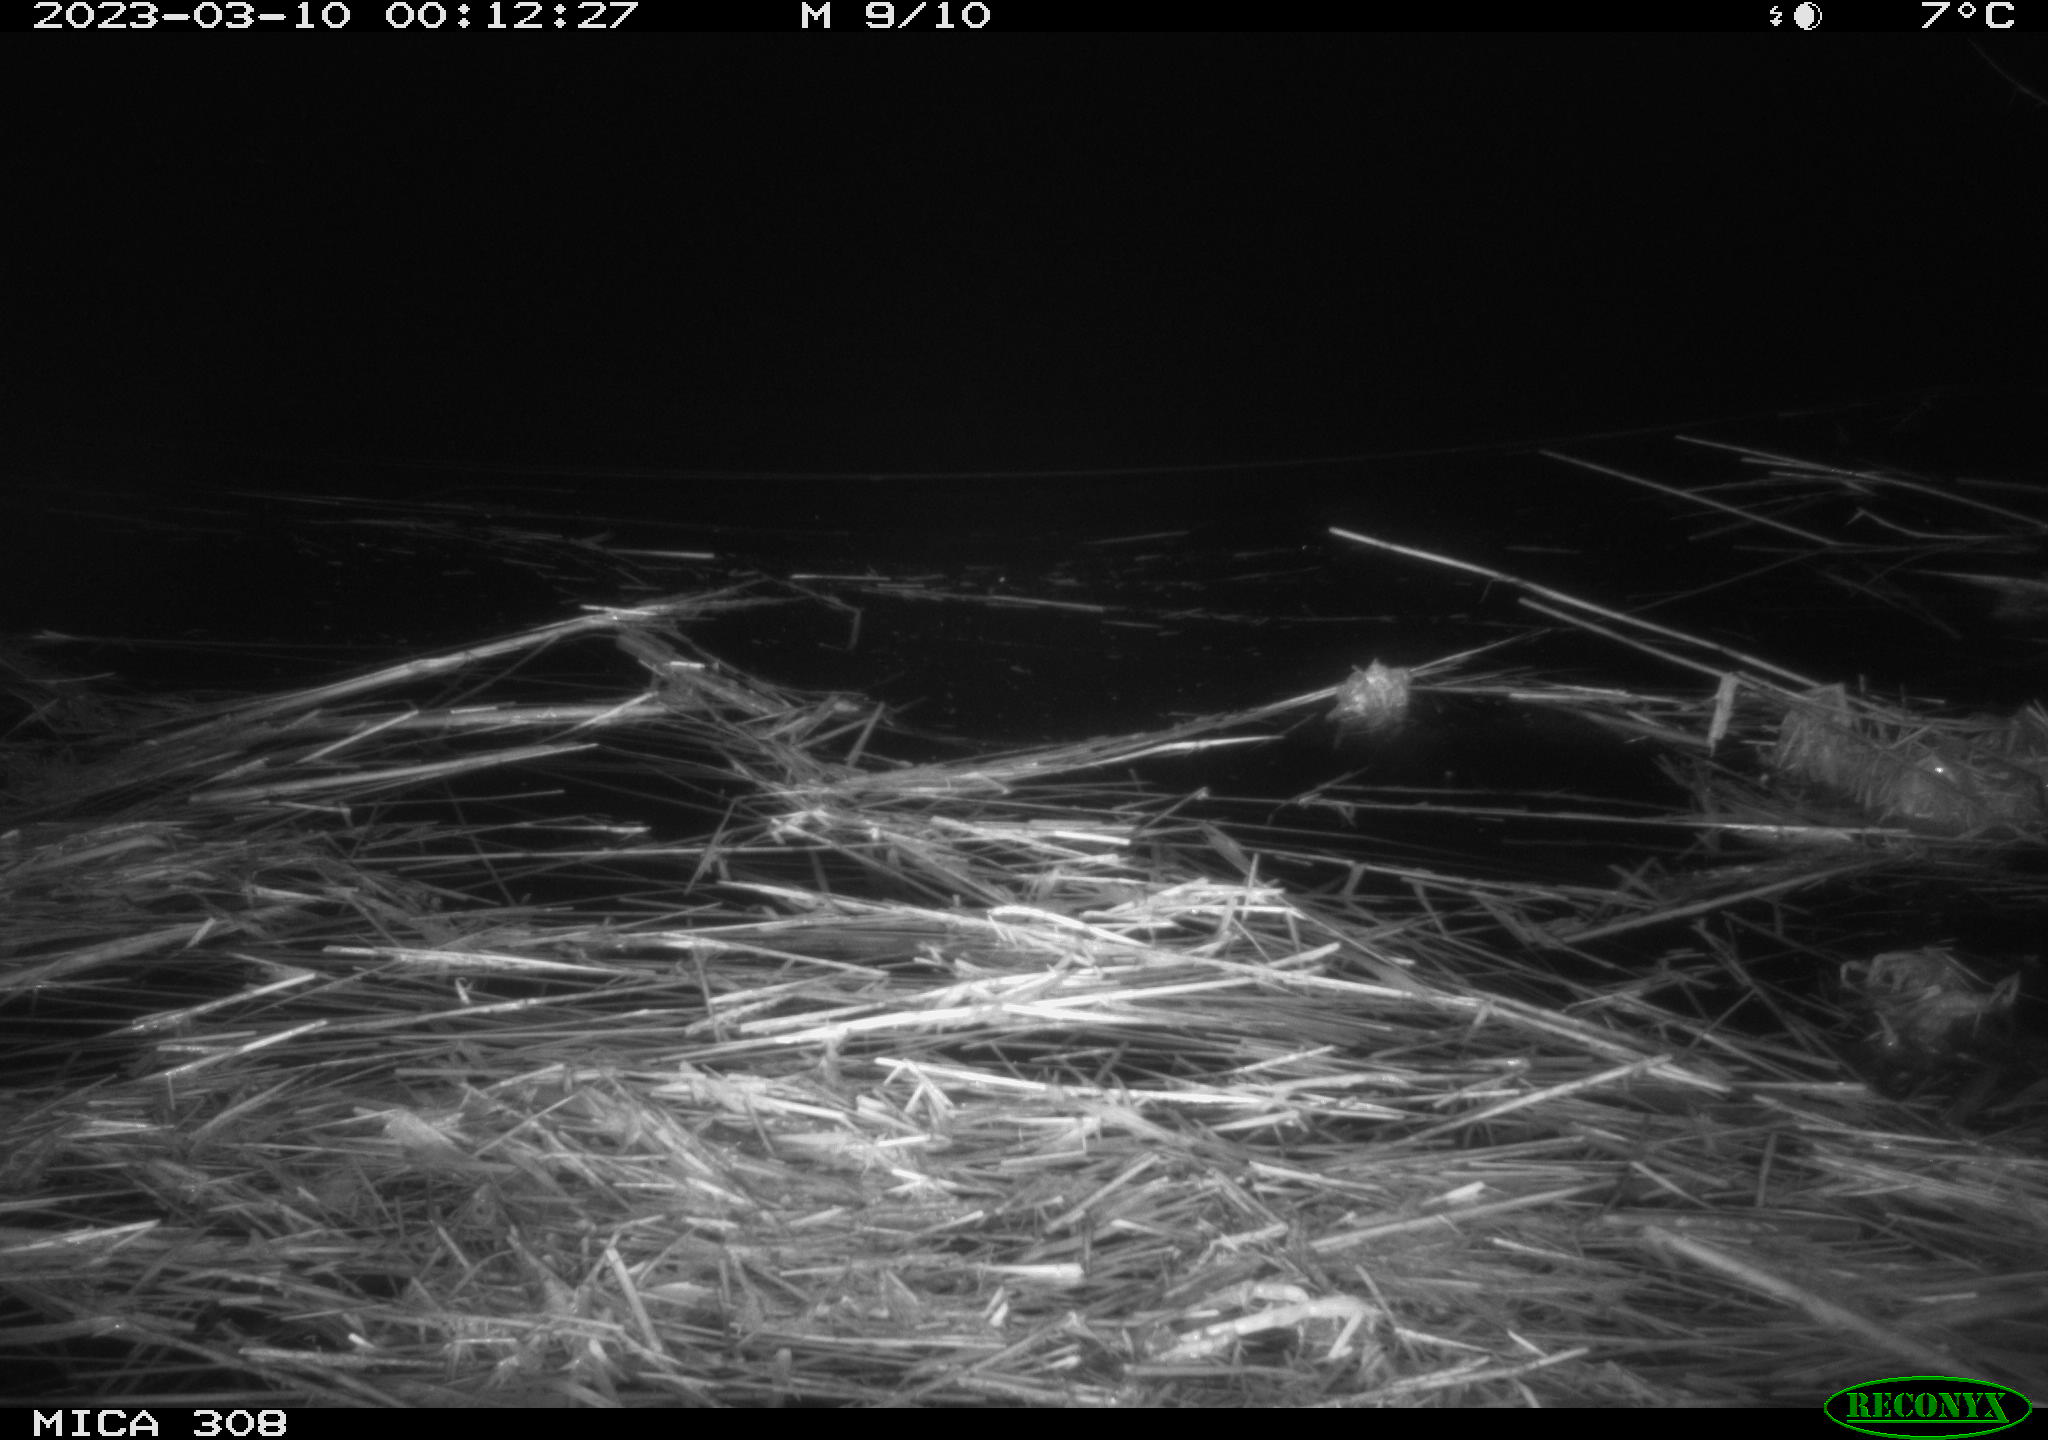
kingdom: Animalia
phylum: Chordata
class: Mammalia
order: Rodentia
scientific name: Rodentia
